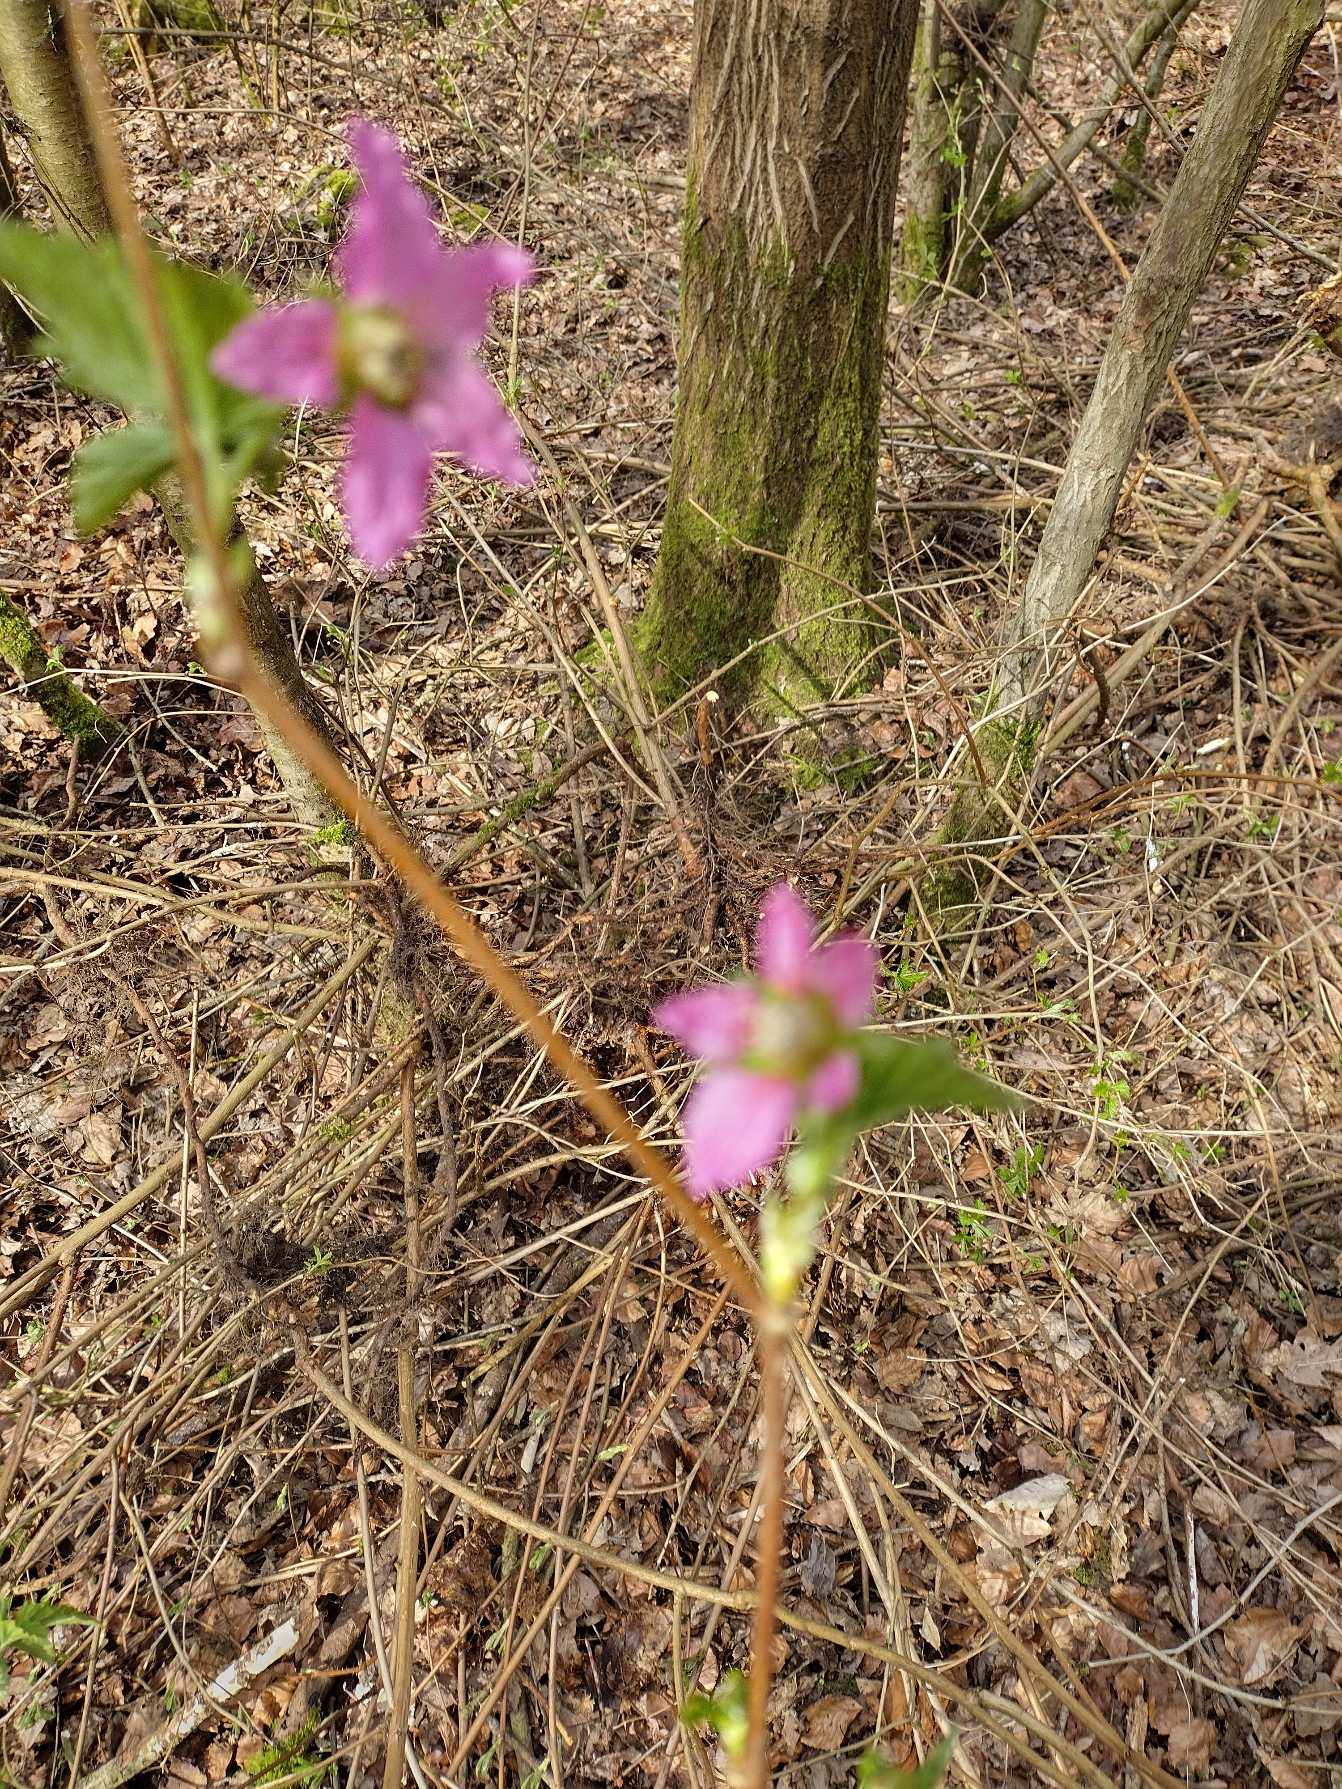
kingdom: Plantae
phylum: Tracheophyta
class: Magnoliopsida
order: Rosales
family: Rosaceae
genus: Rubus
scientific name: Rubus spectabilis
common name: Laksebær
